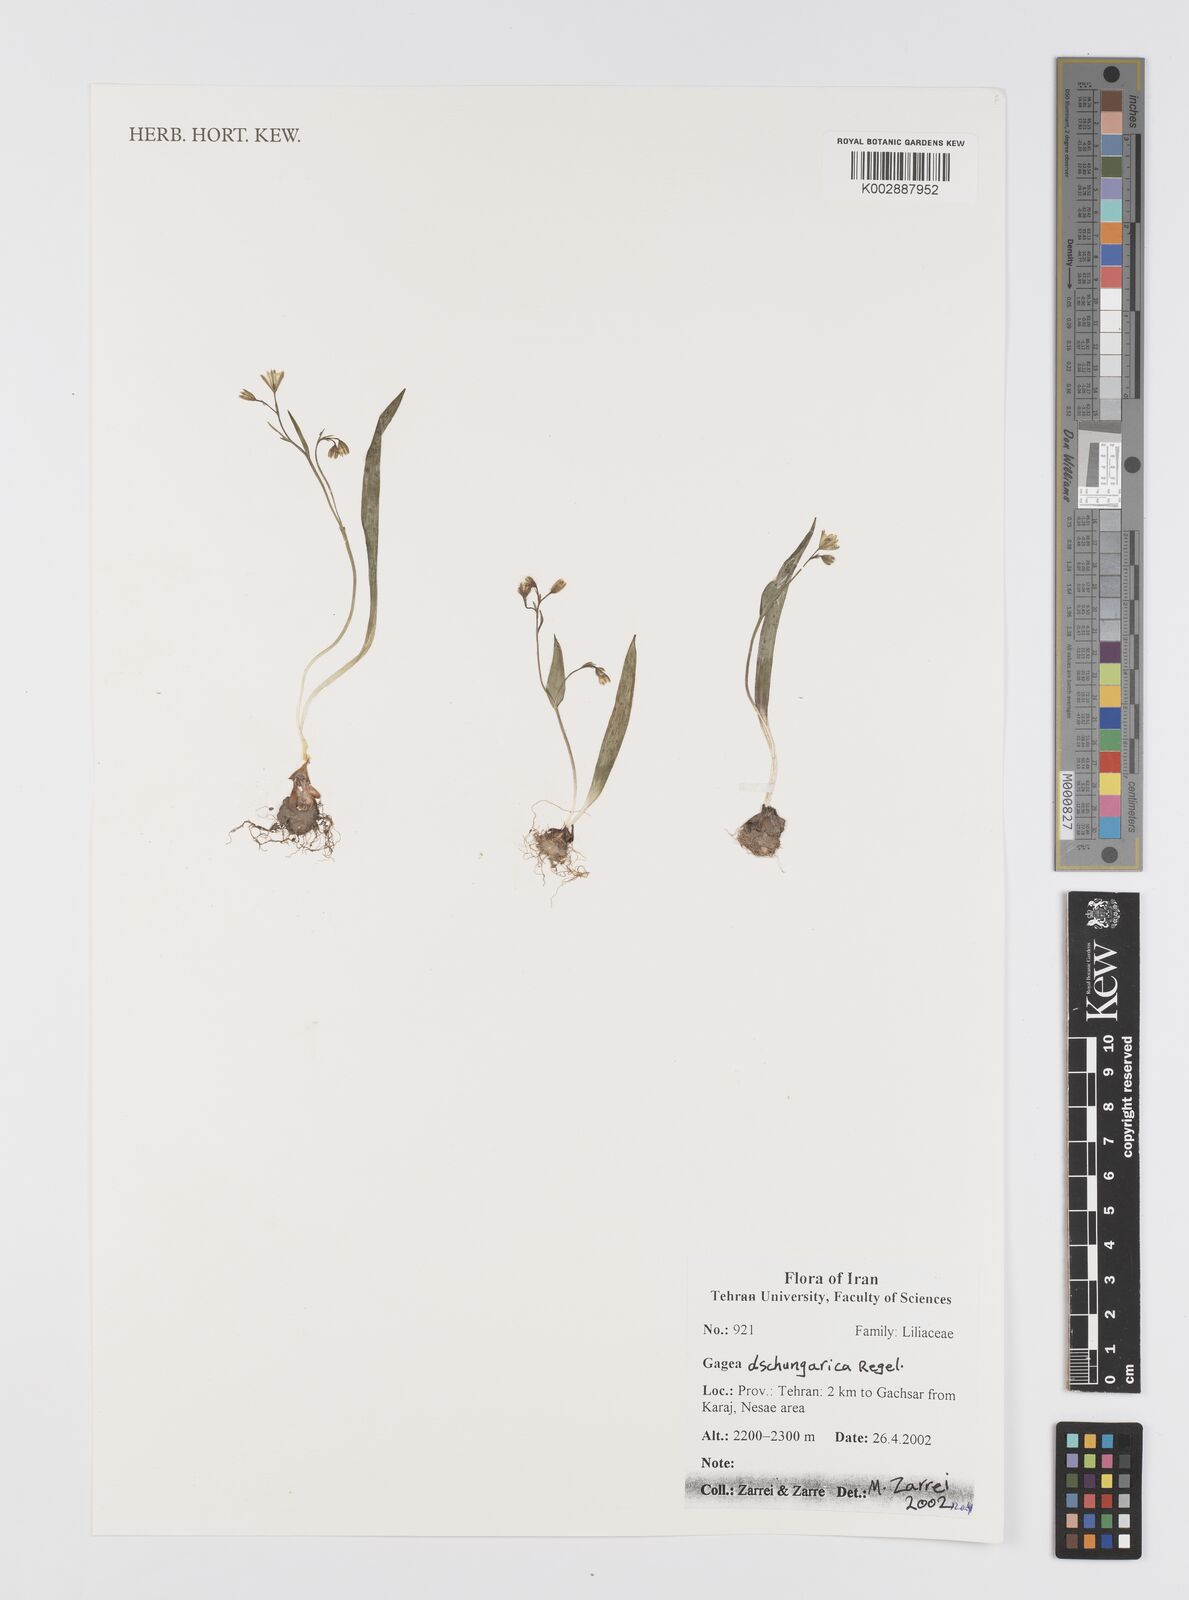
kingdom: Plantae
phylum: Tracheophyta
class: Liliopsida
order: Liliales
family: Liliaceae
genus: Gagea
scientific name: Gagea dschungarica
